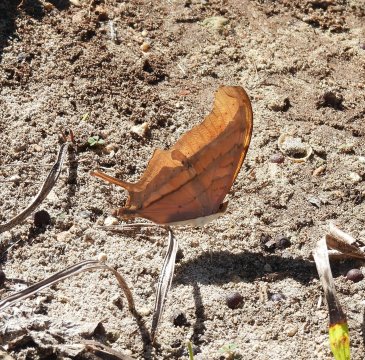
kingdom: Animalia
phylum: Arthropoda
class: Insecta
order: Lepidoptera
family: Nymphalidae
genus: Marpesia
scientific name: Marpesia petreus
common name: Ruddy Daggerwing
